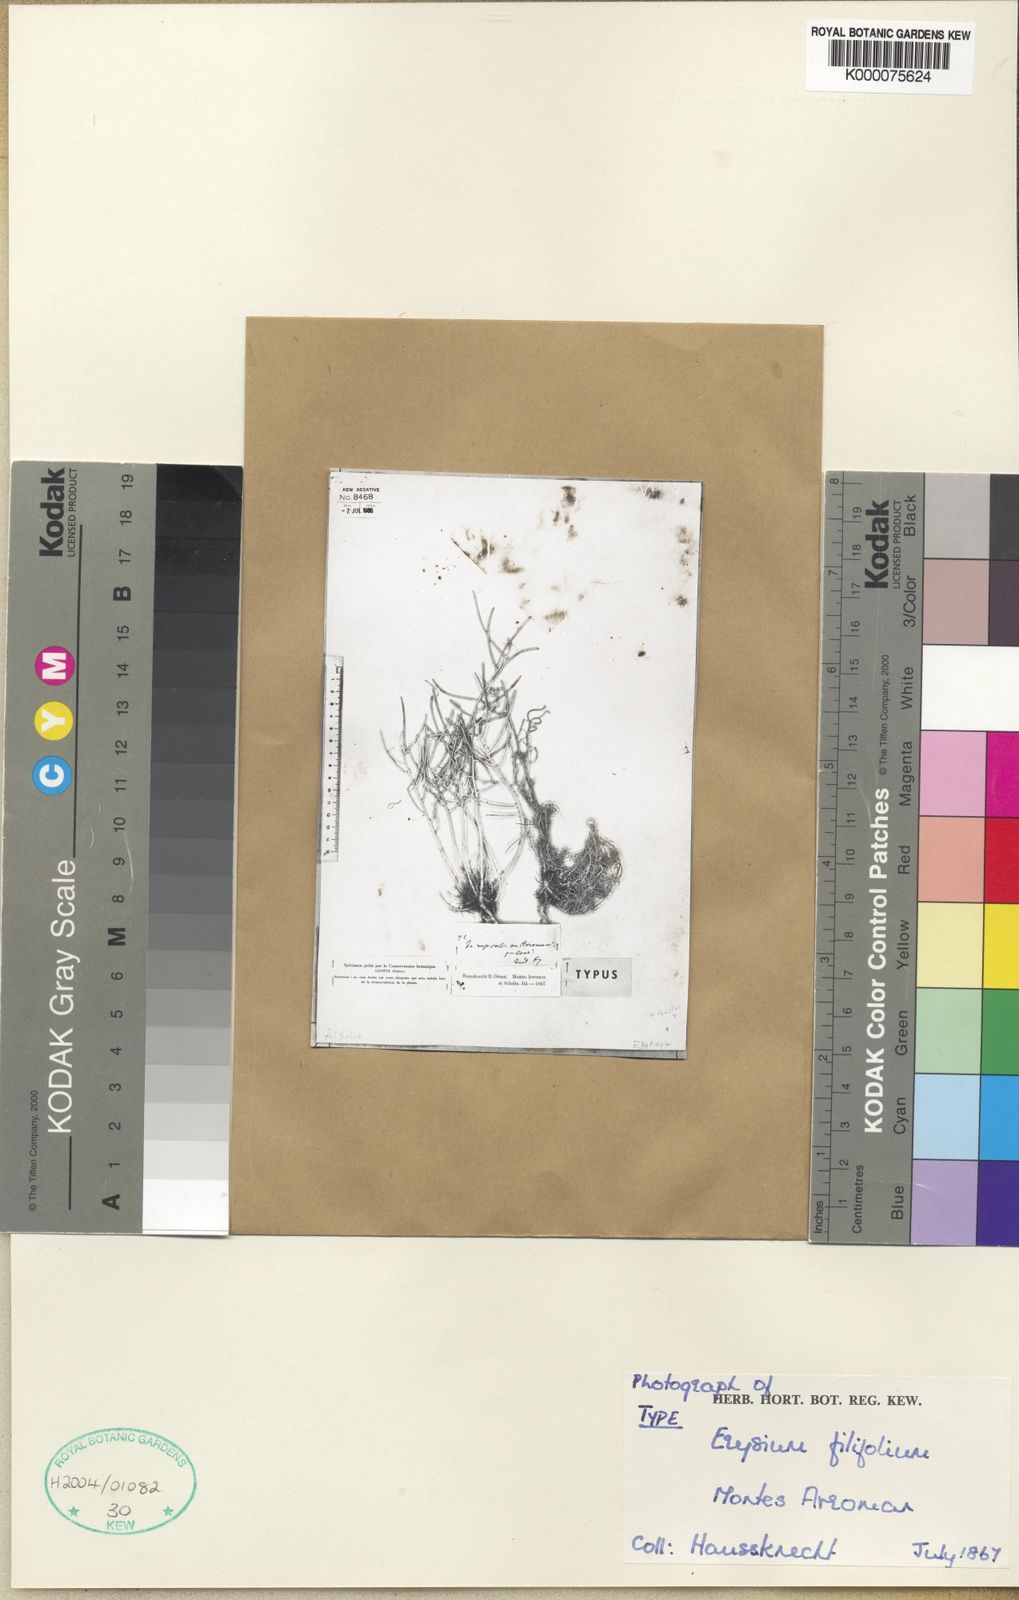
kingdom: Plantae
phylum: Tracheophyta
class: Magnoliopsida
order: Brassicales
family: Brassicaceae
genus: Erysimum
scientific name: Erysimum boissieri
